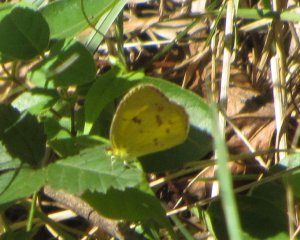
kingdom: Animalia
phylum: Arthropoda
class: Insecta
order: Lepidoptera
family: Pieridae
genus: Pyrisitia
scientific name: Pyrisitia lisa
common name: Little Yellow
